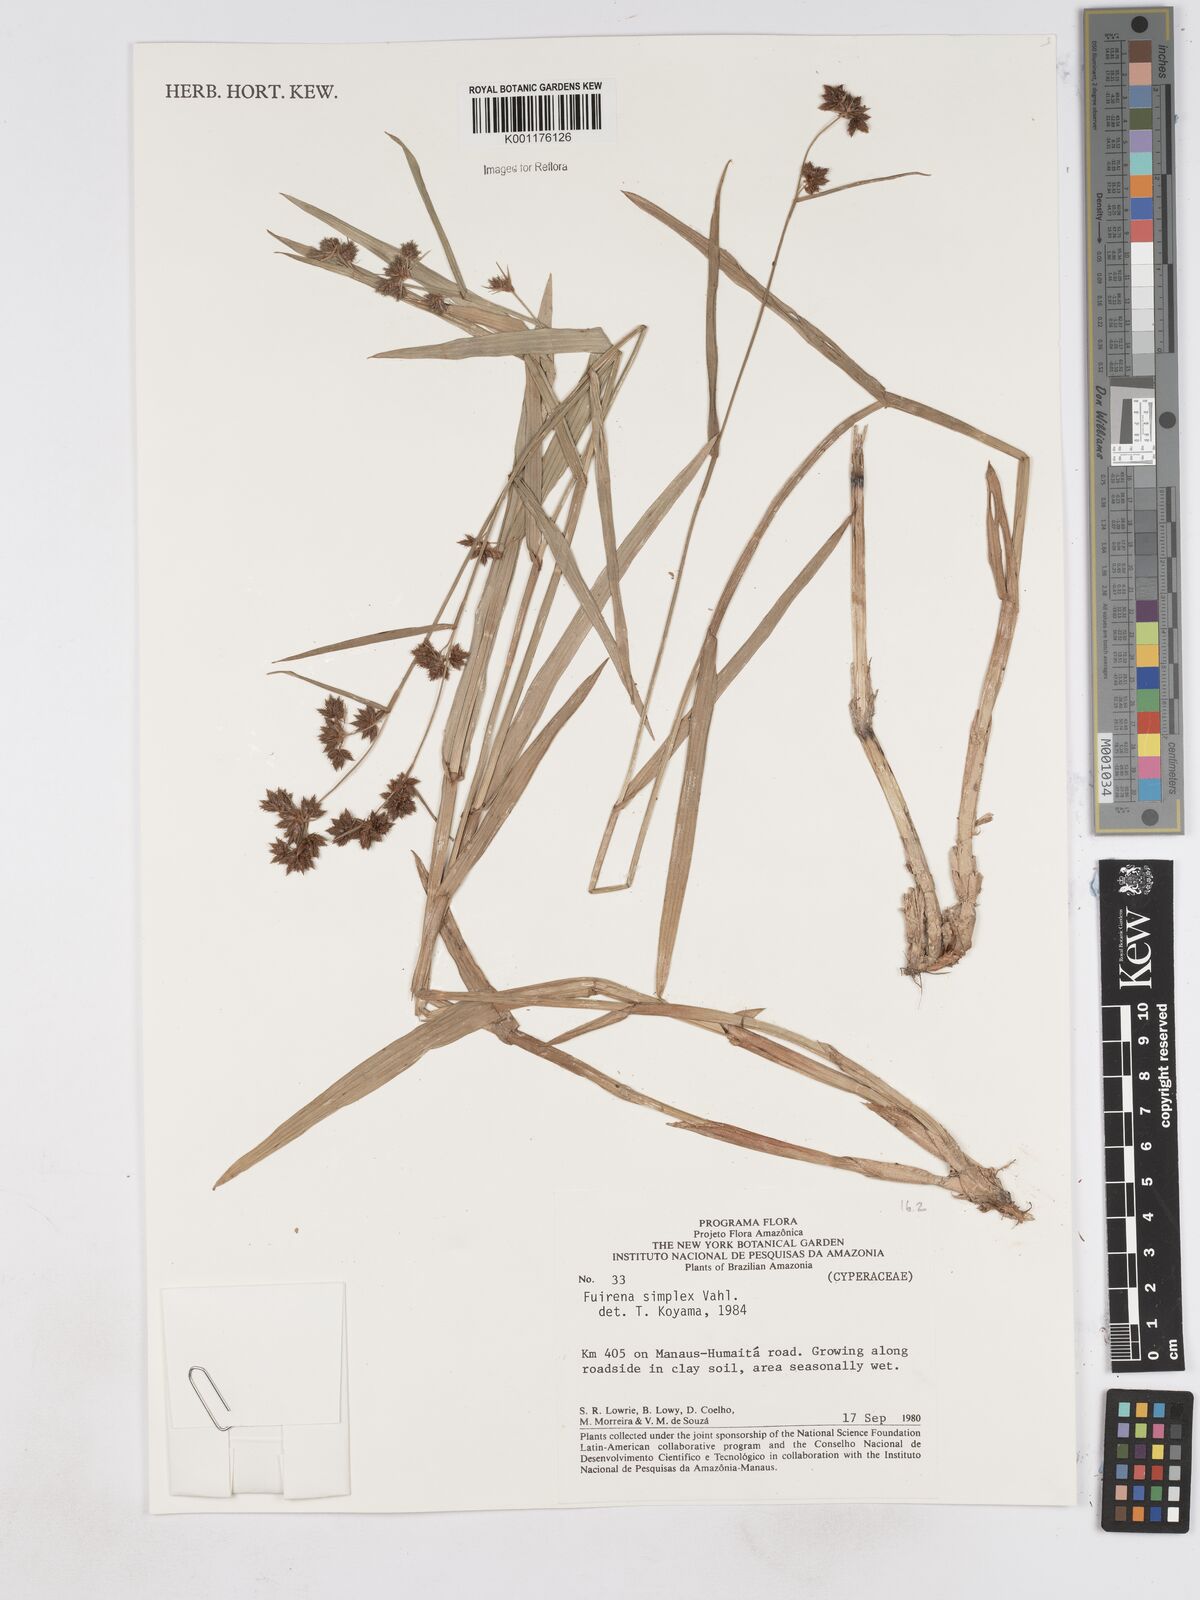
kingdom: Plantae
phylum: Tracheophyta
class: Liliopsida
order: Poales
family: Cyperaceae
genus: Fuirena
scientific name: Fuirena simplex
